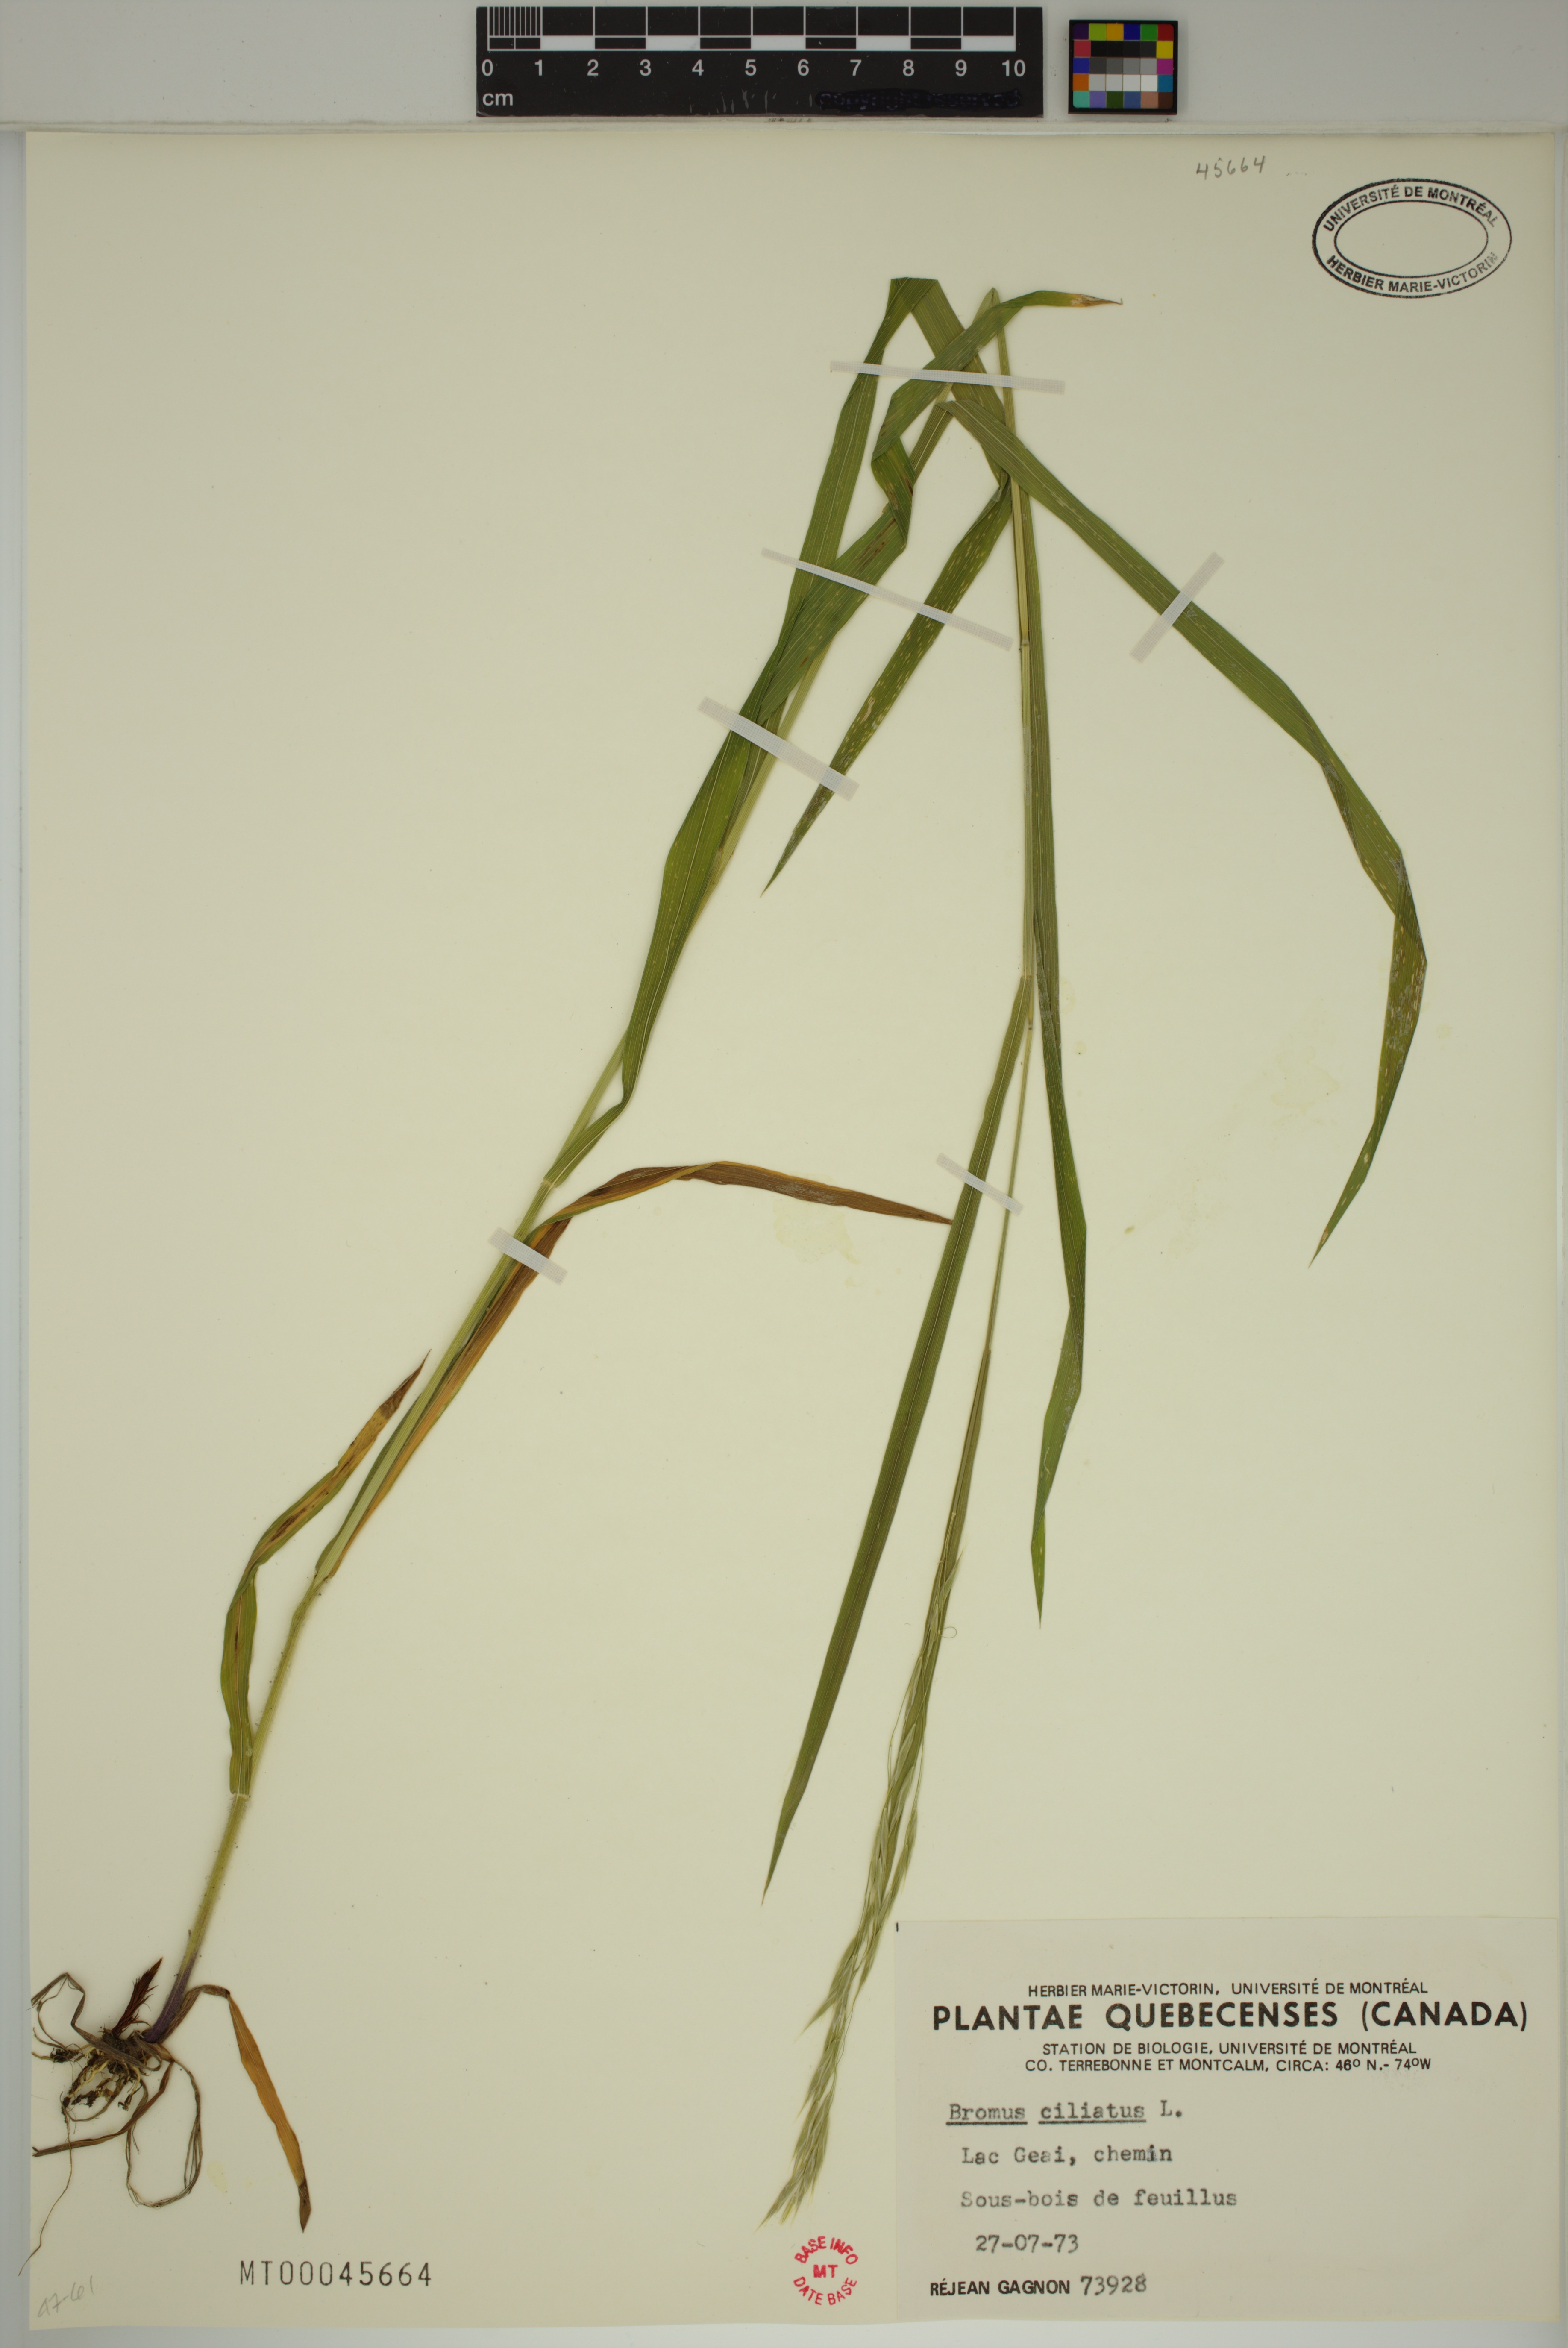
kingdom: Plantae
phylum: Tracheophyta
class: Liliopsida
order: Poales
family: Poaceae
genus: Bromus
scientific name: Bromus ciliatus
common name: Fringe brome
